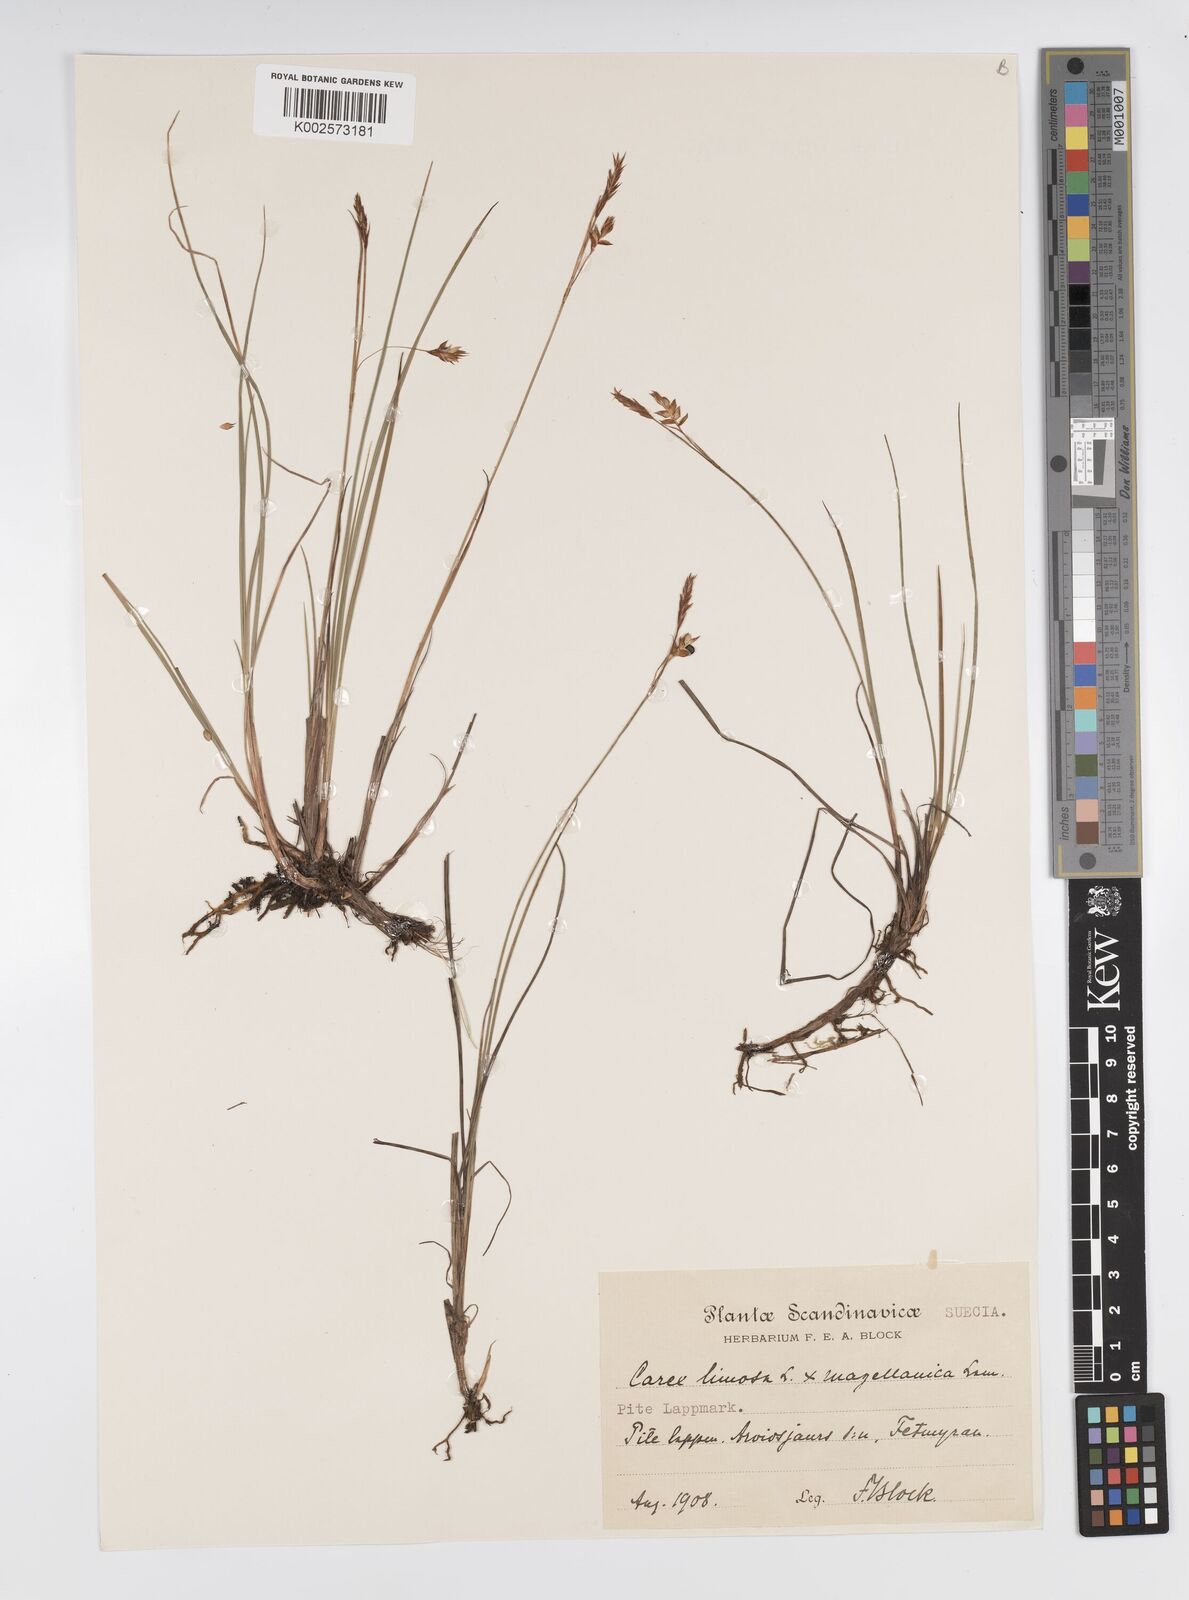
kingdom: Plantae
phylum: Tracheophyta
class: Liliopsida
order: Poales
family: Cyperaceae
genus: Carex
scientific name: Carex limosa
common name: Bog sedge
